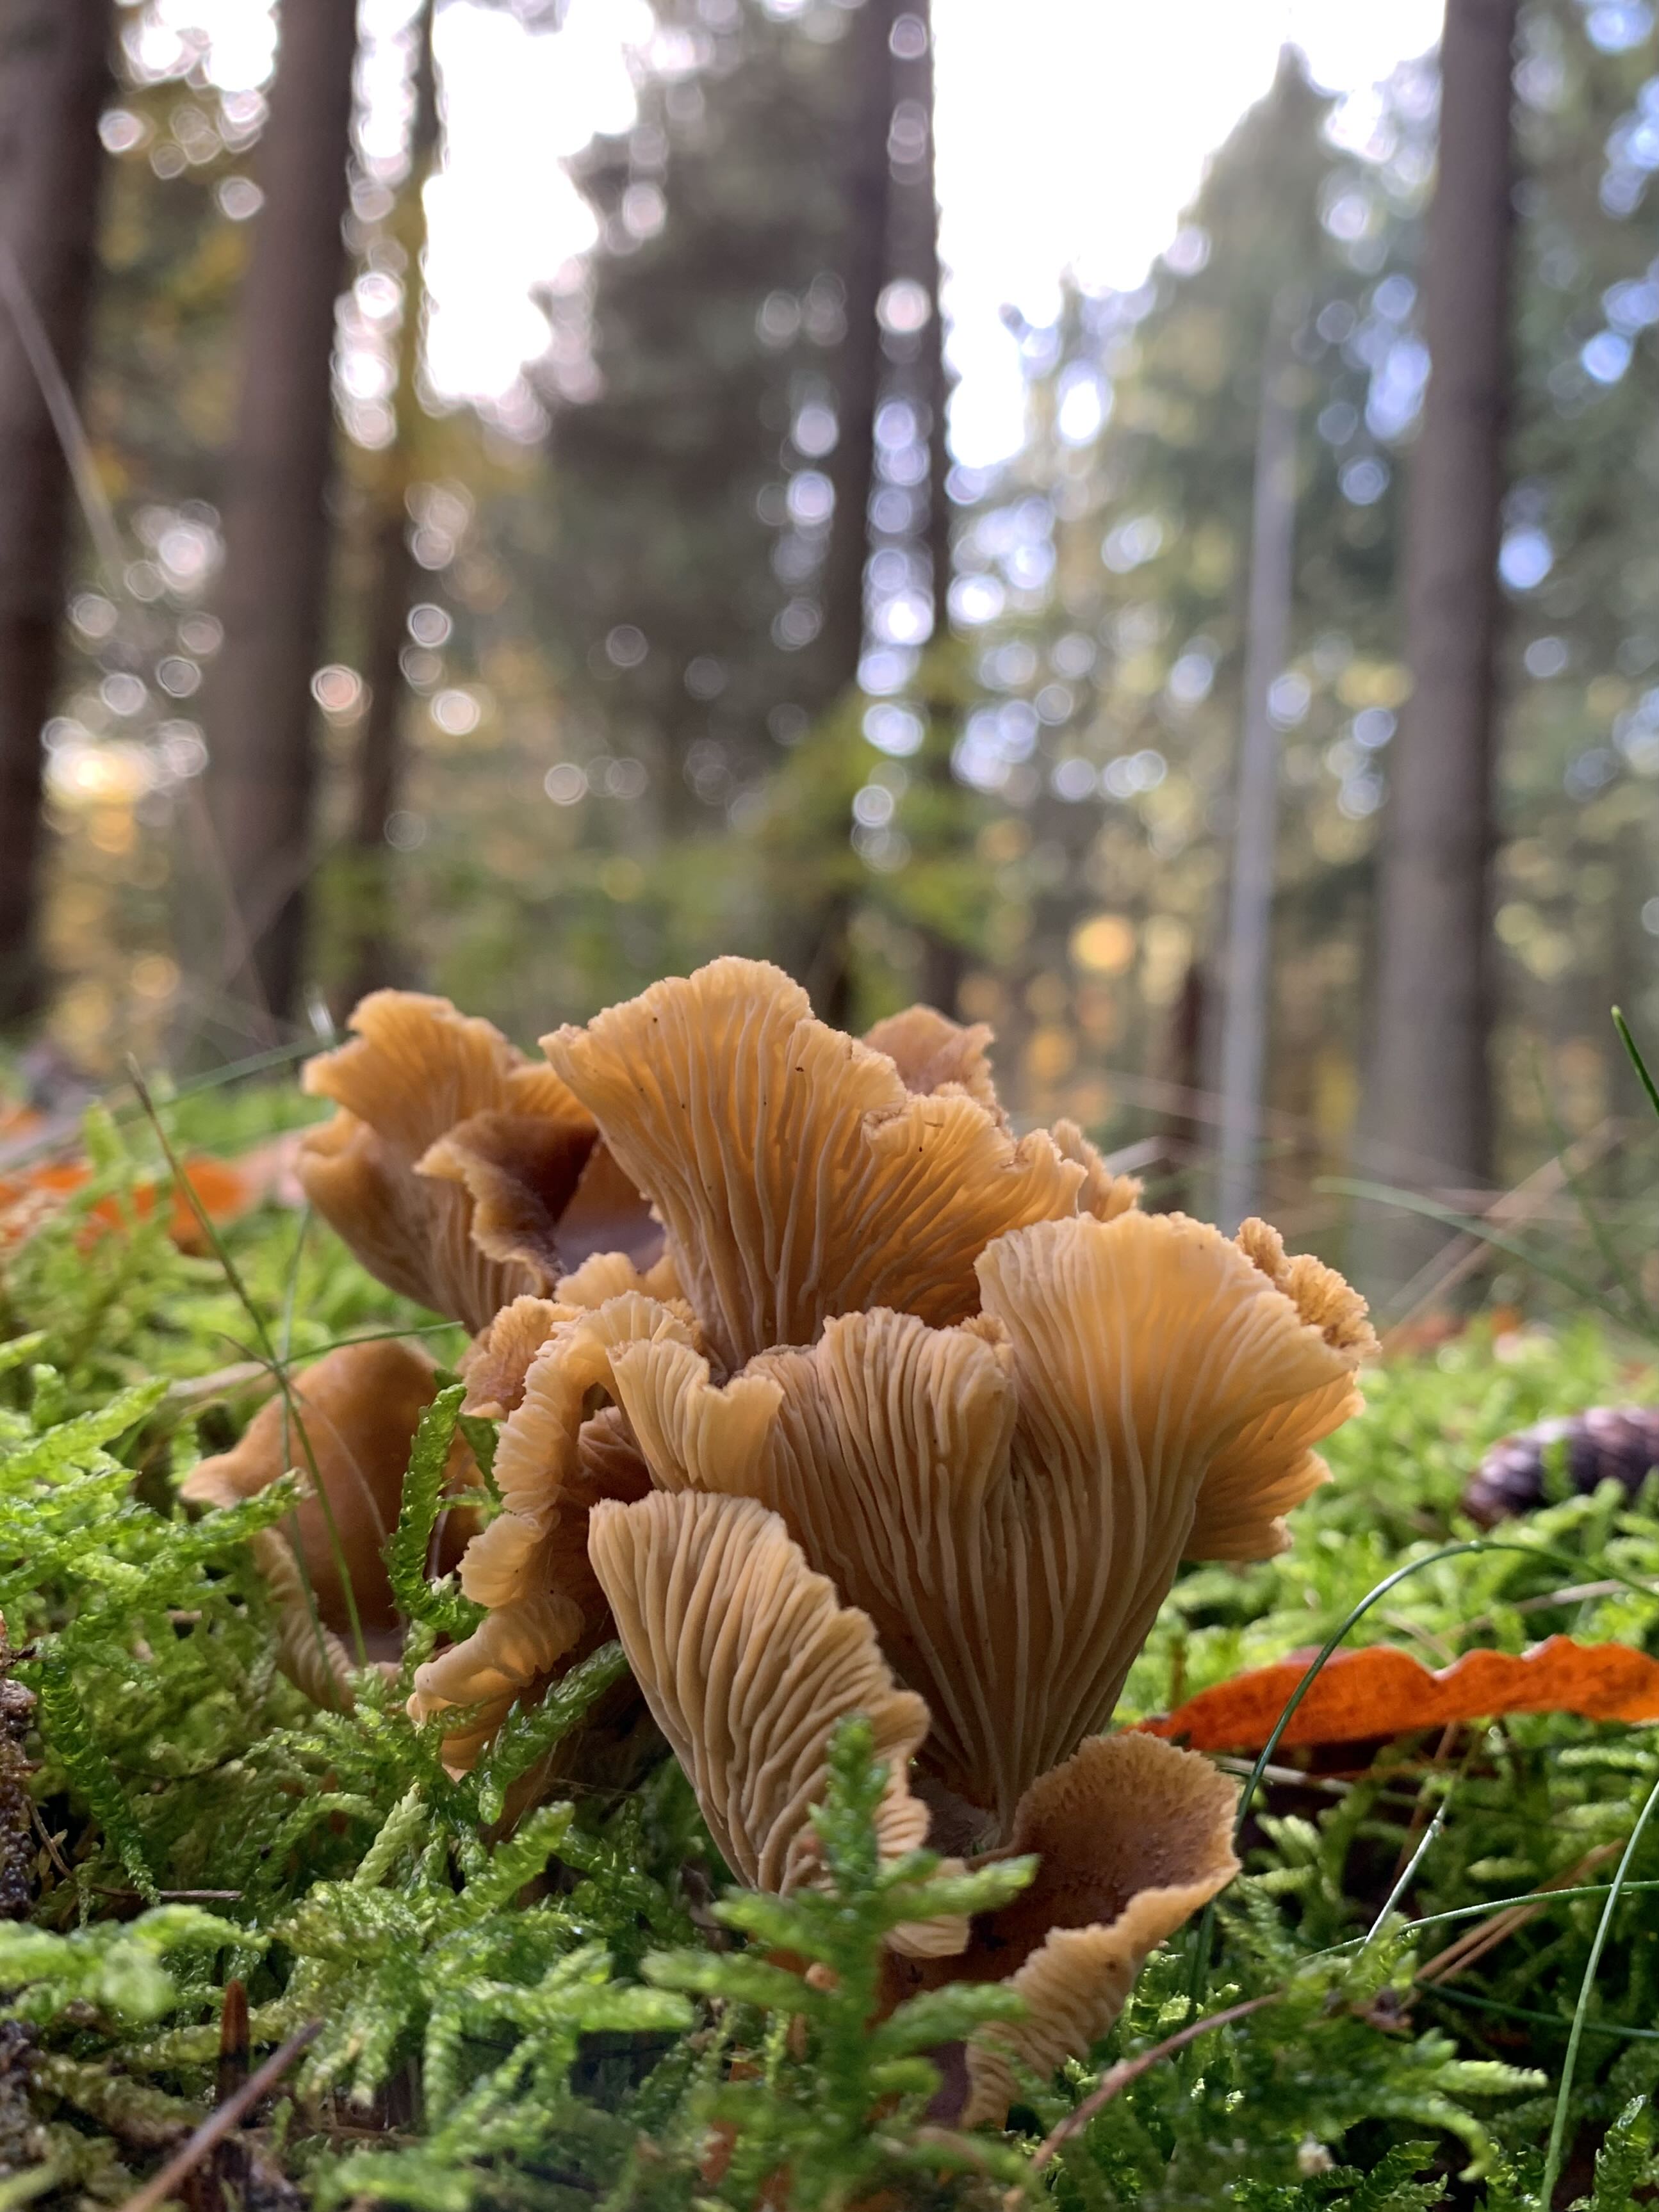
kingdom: Fungi
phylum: Basidiomycota
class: Agaricomycetes
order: Cantharellales
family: Hydnaceae
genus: Craterellus
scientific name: Craterellus tubaeformis
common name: tragt-kantarel
